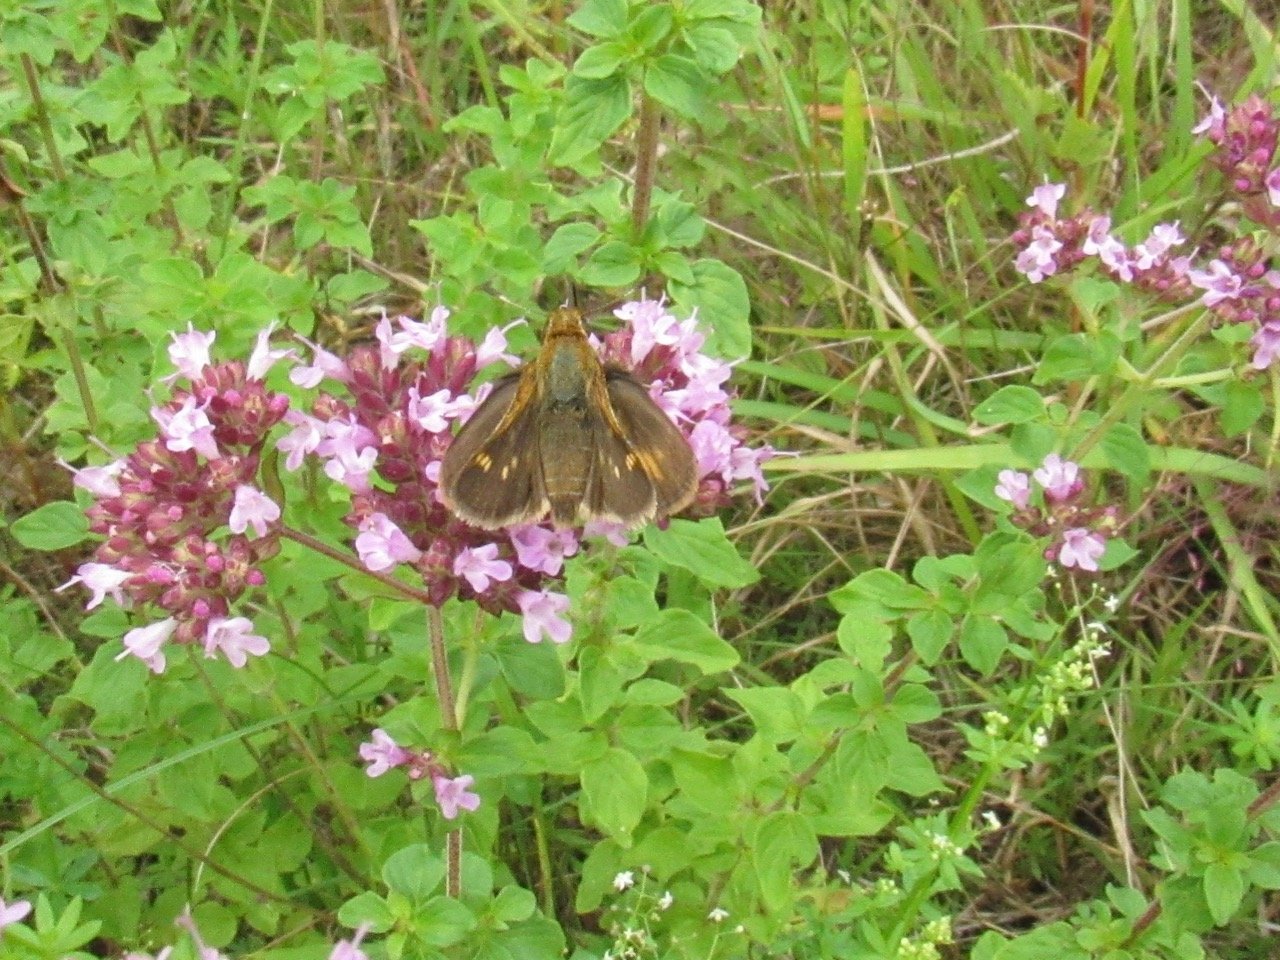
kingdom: Animalia
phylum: Arthropoda
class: Insecta
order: Lepidoptera
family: Hesperiidae
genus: Polites
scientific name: Polites coras
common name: Peck's Skipper
